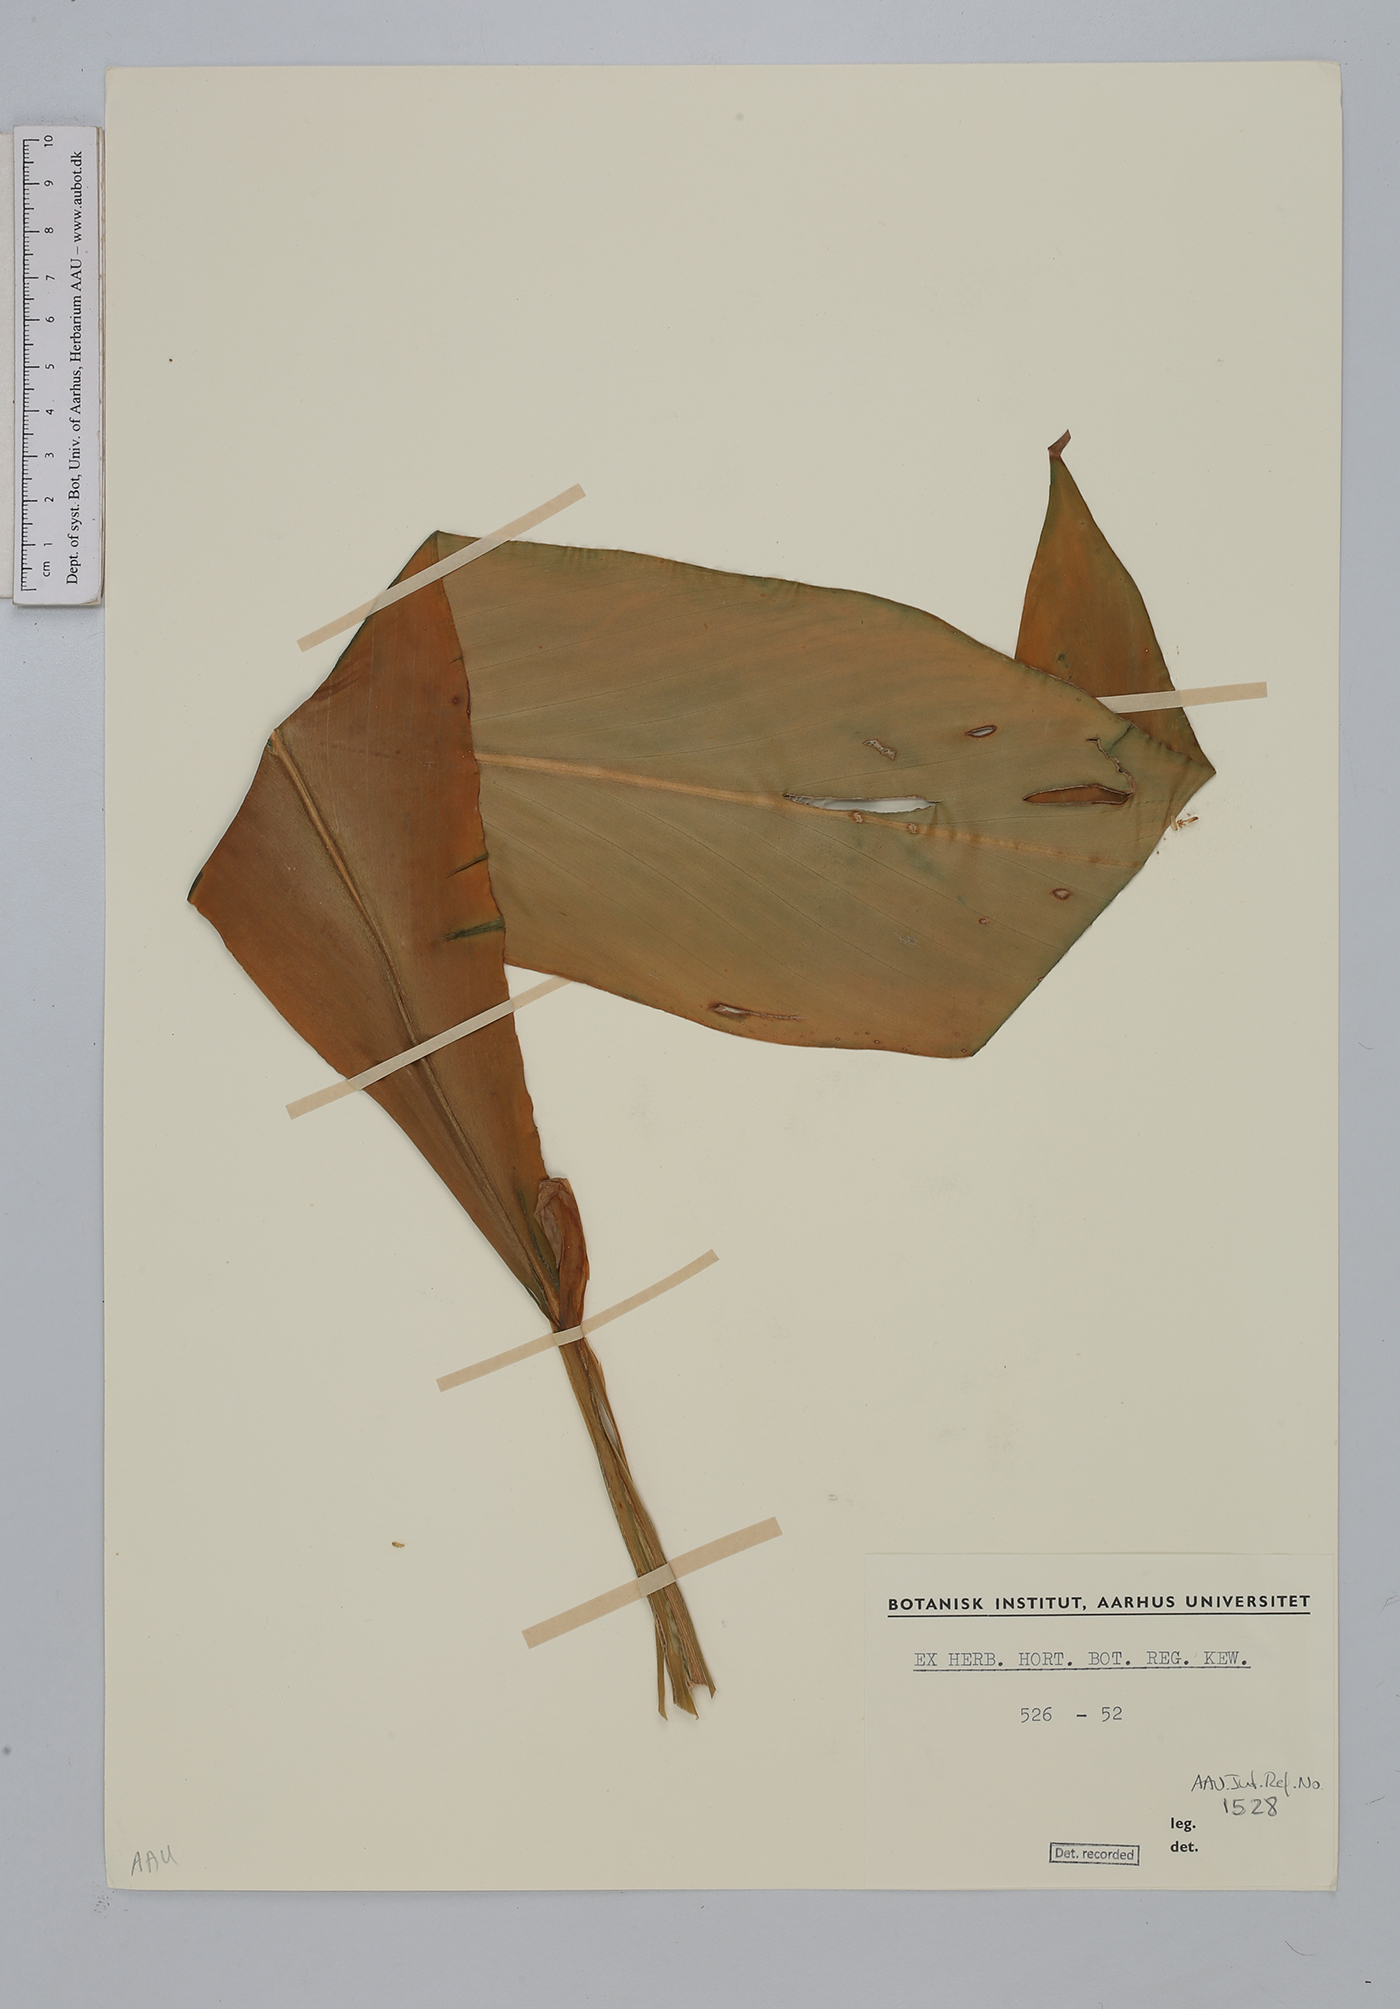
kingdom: Plantae
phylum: Tracheophyta
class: Liliopsida
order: Zingiberales
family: Zingiberaceae
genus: Hedychium
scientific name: Hedychium
